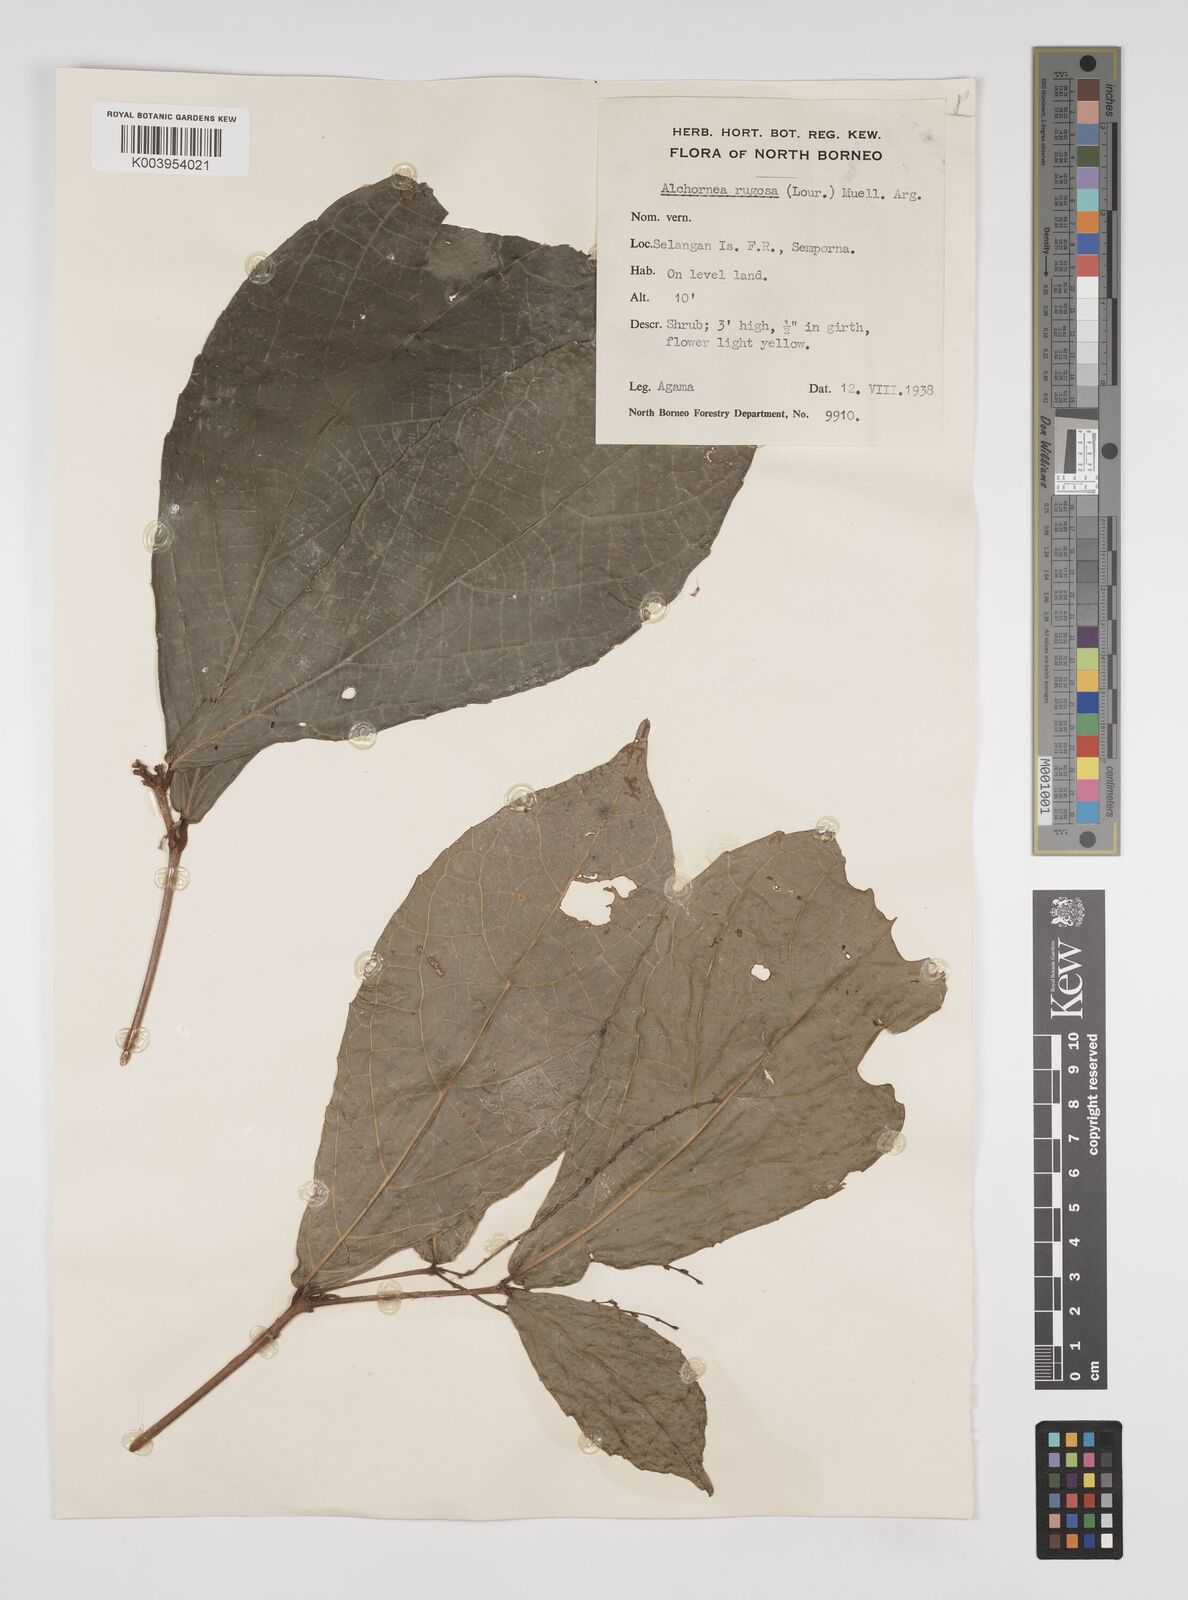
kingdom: Plantae
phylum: Tracheophyta
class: Magnoliopsida
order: Malpighiales
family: Euphorbiaceae
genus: Alchornea
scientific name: Alchornea rugosa
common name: Alchorntree
